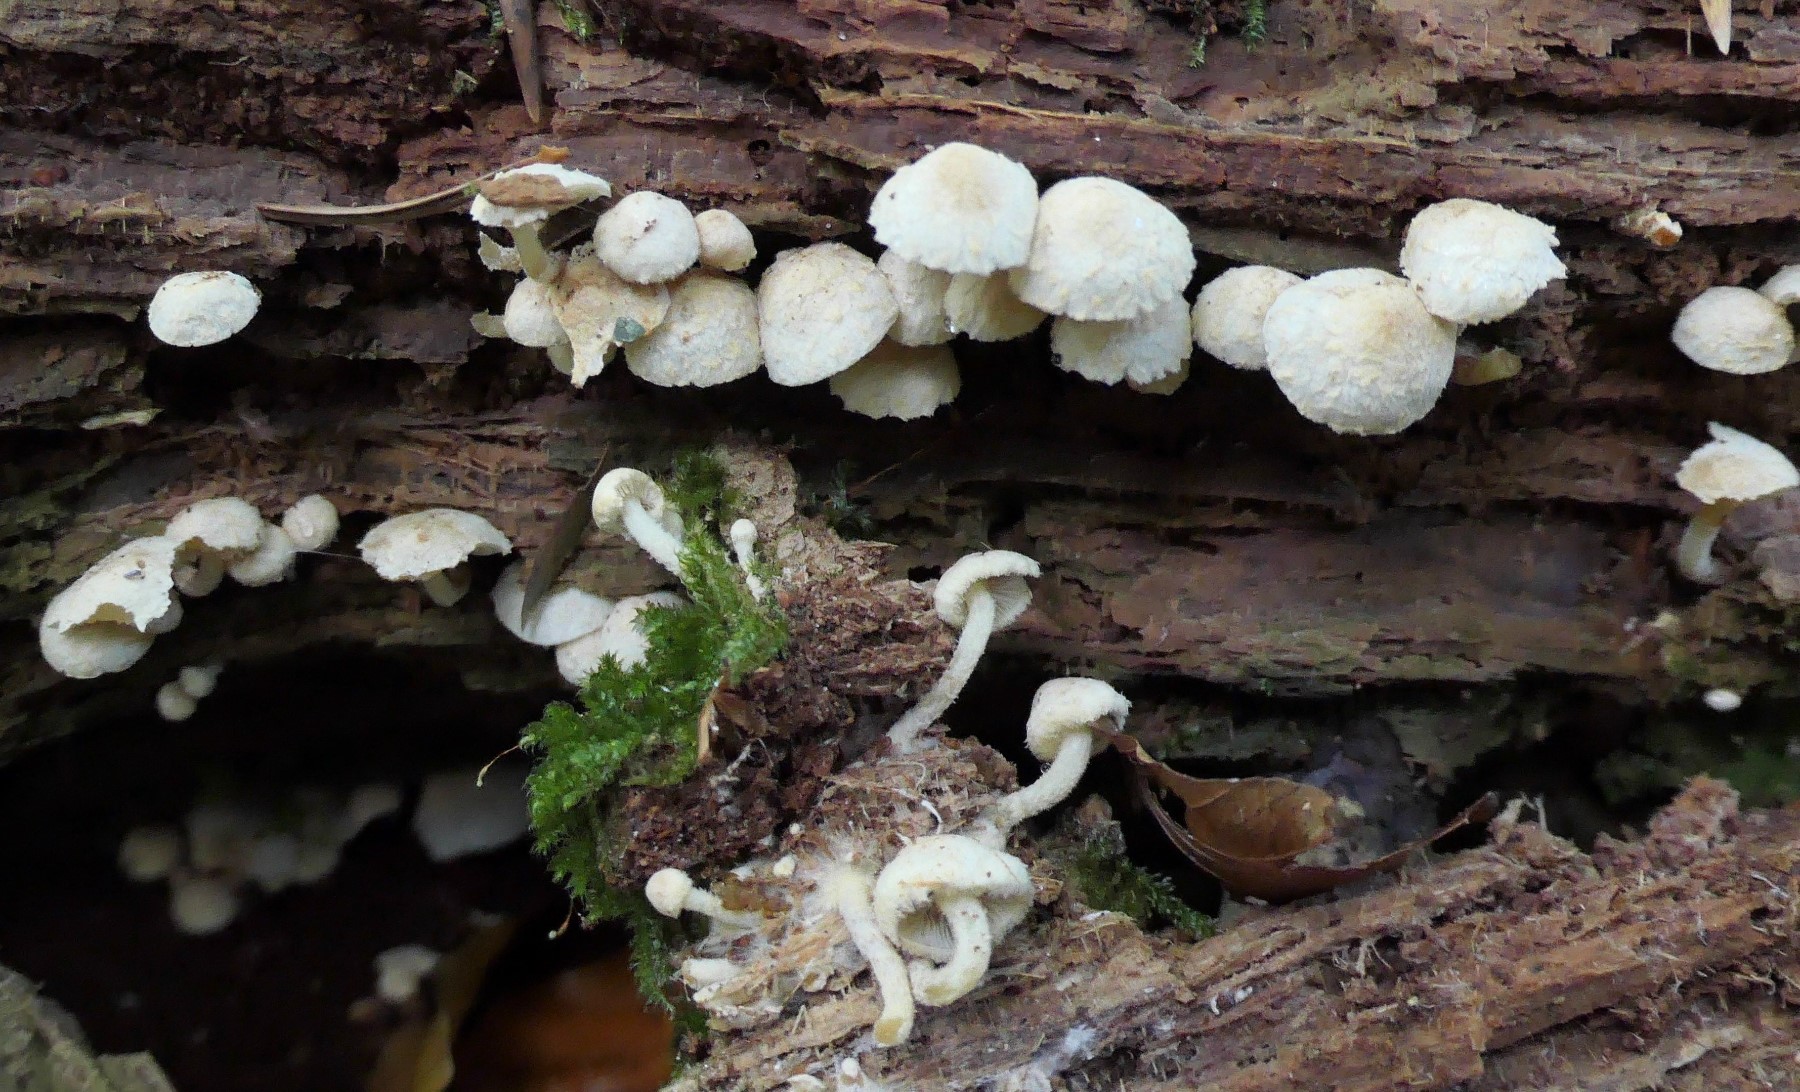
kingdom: Fungi
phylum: Basidiomycota
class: Agaricomycetes
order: Agaricales
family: Strophariaceae
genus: Pholiota
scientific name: Pholiota scamba
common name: dværg-skælhat
